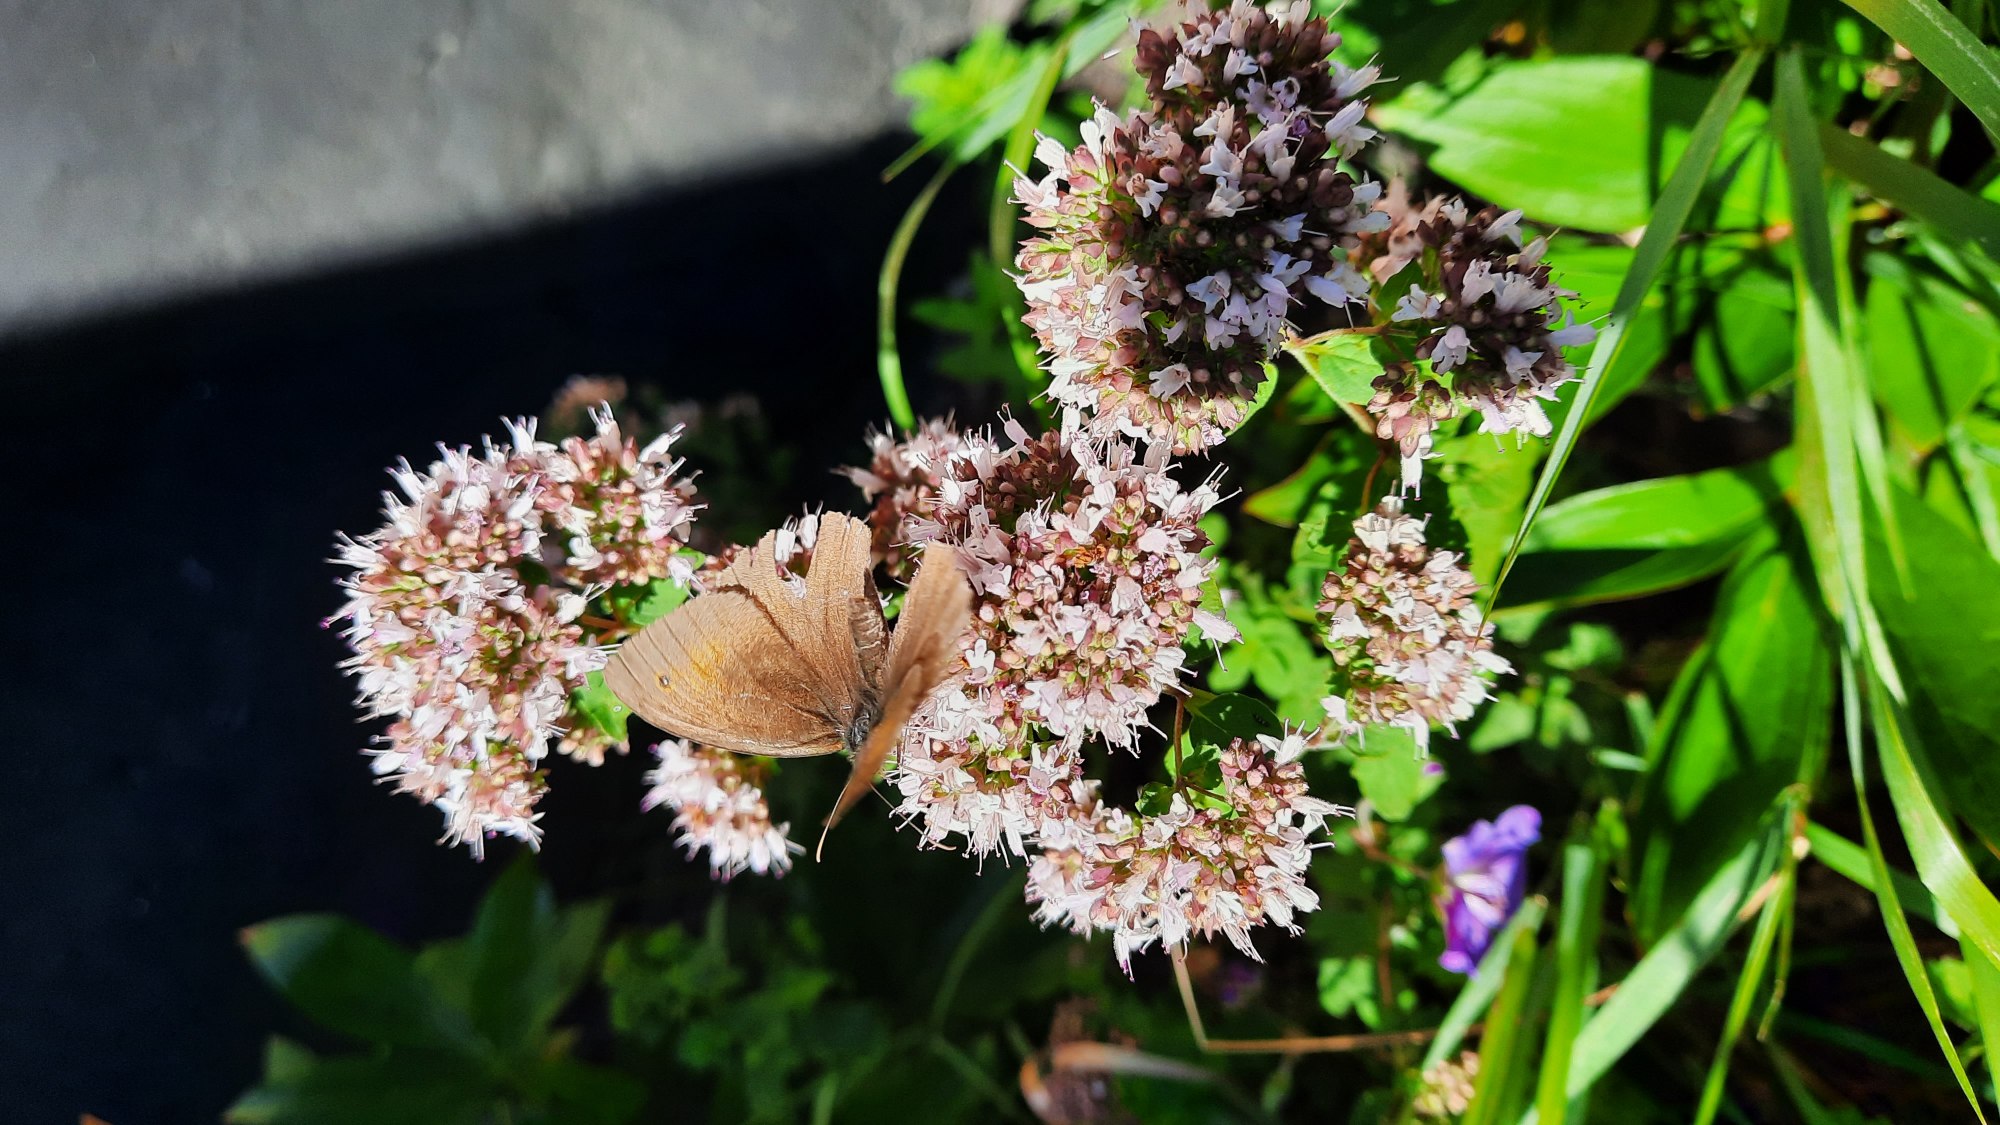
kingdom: Animalia
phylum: Arthropoda
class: Insecta
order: Lepidoptera
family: Nymphalidae
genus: Maniola
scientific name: Maniola jurtina
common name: Græsrandøje
